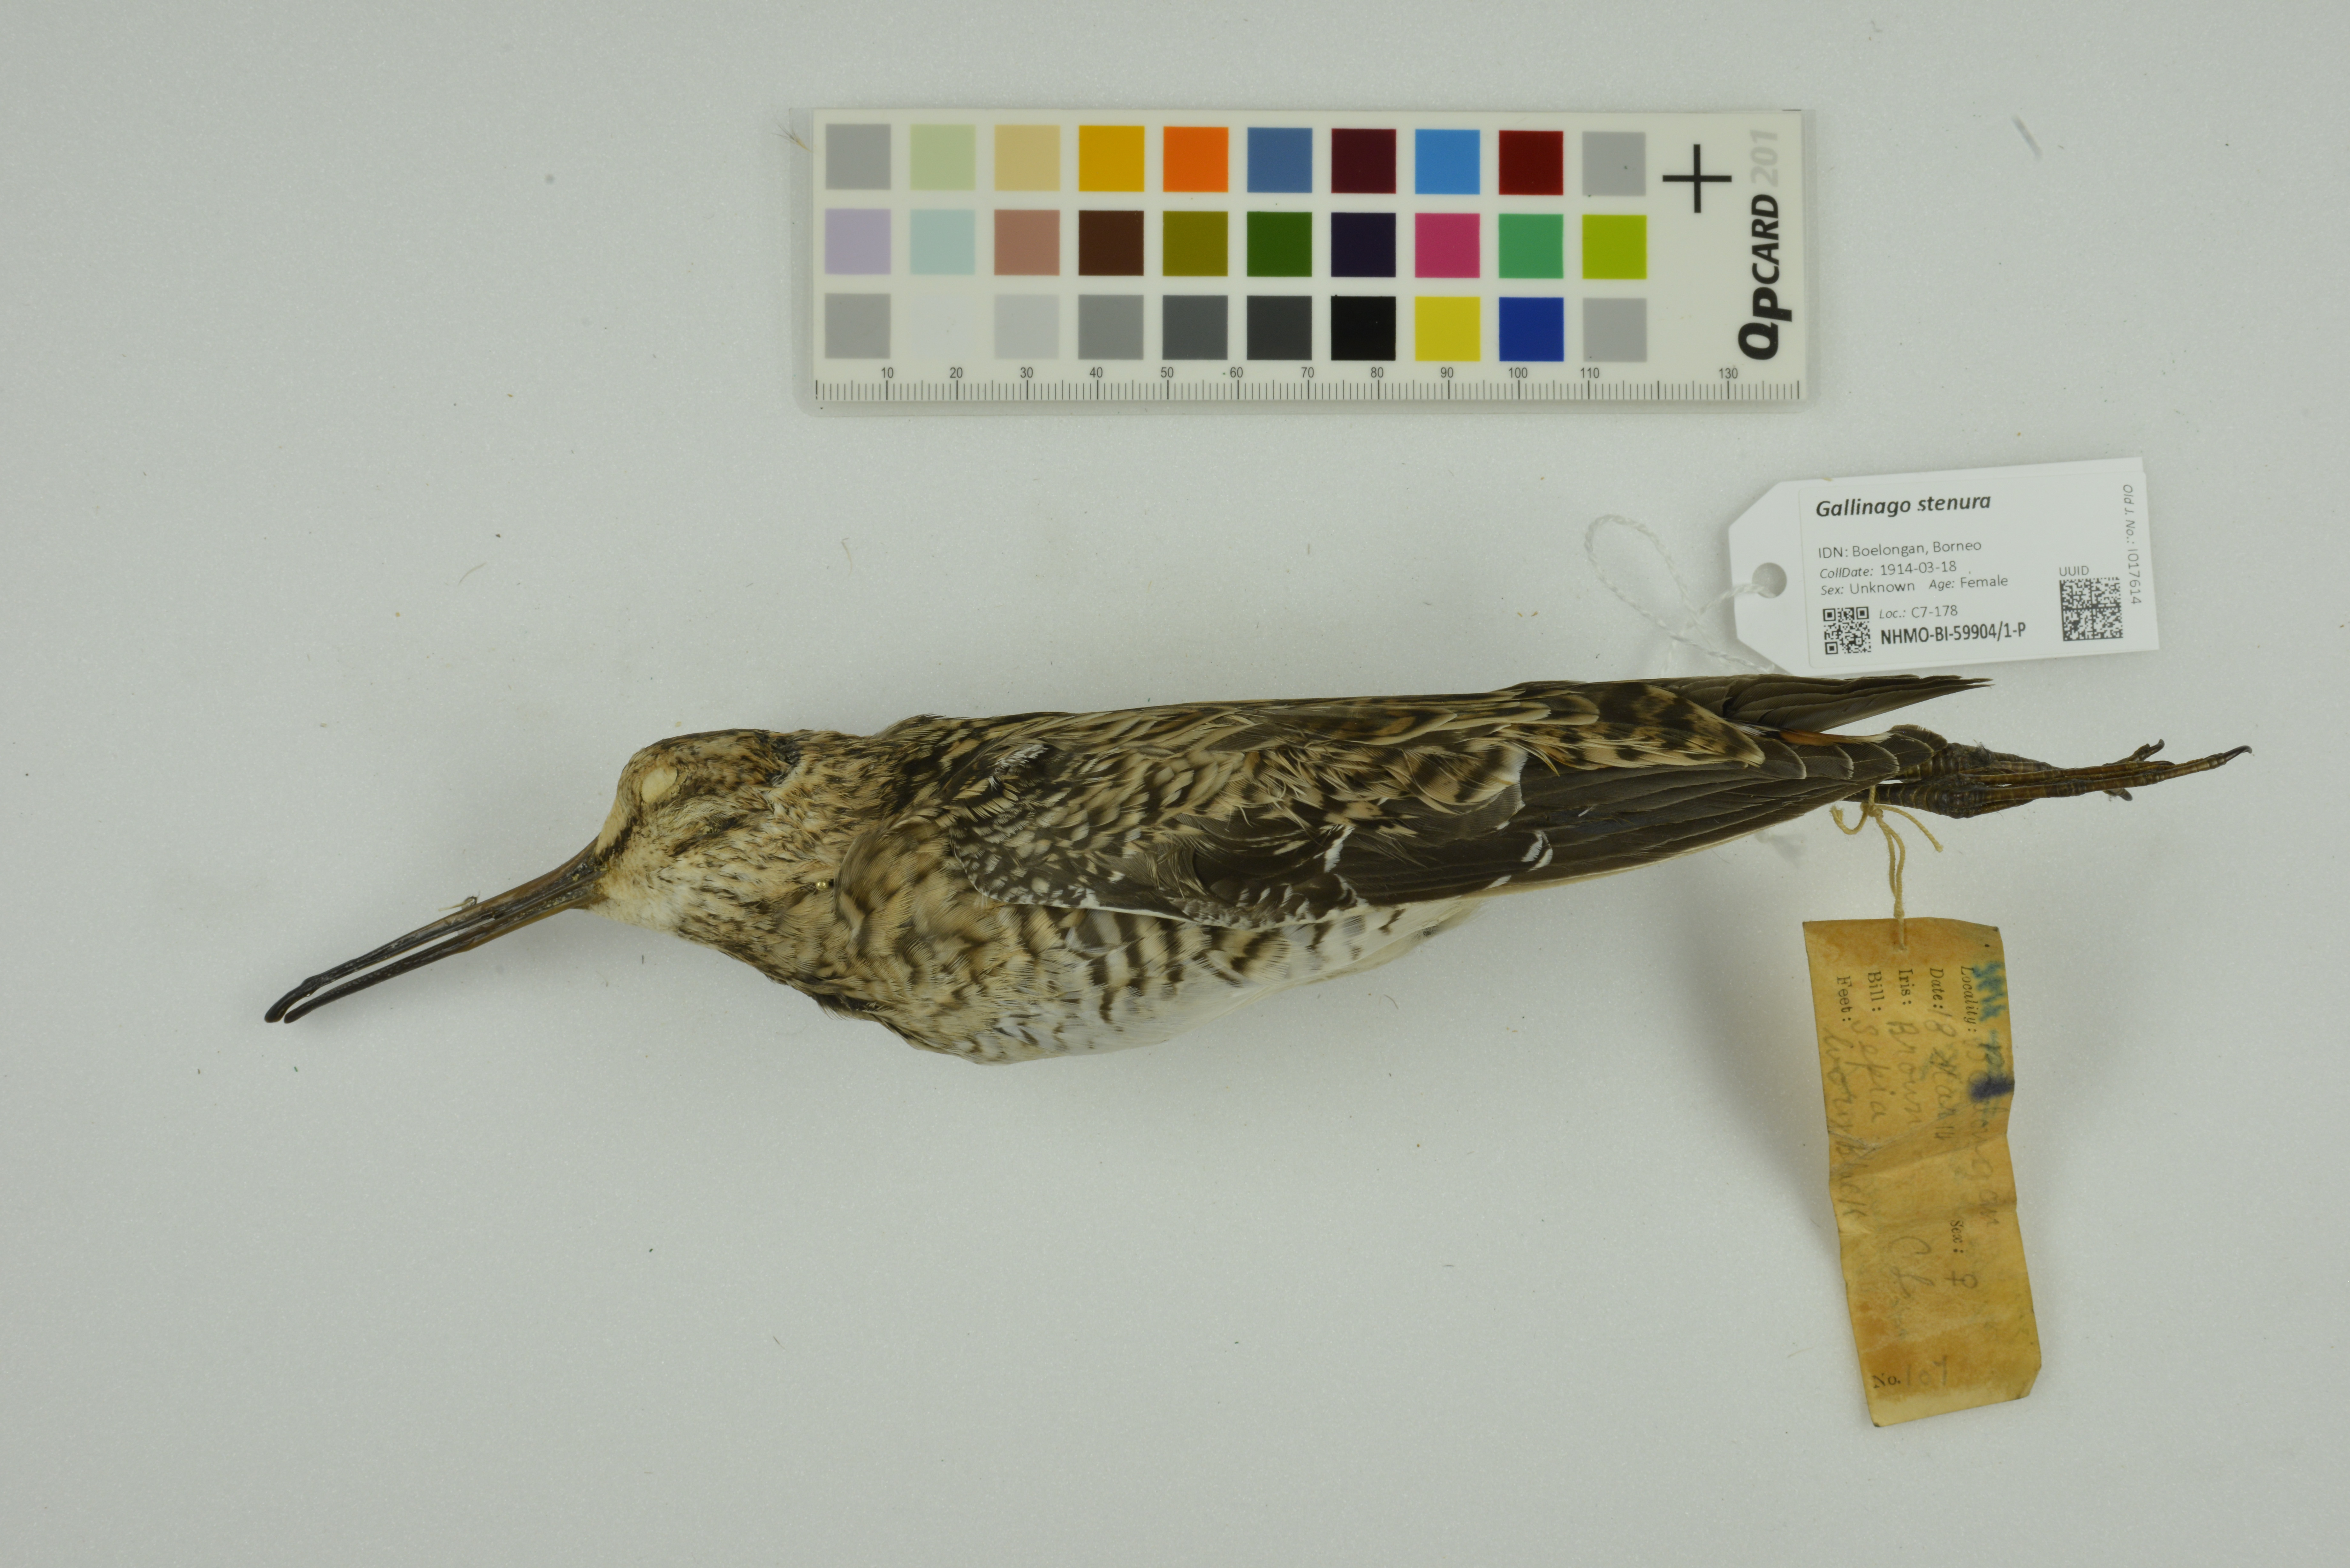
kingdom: Animalia
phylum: Chordata
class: Aves
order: Charadriiformes
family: Scolopacidae
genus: Gallinago
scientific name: Gallinago stenura
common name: Pin-tailed snipe
